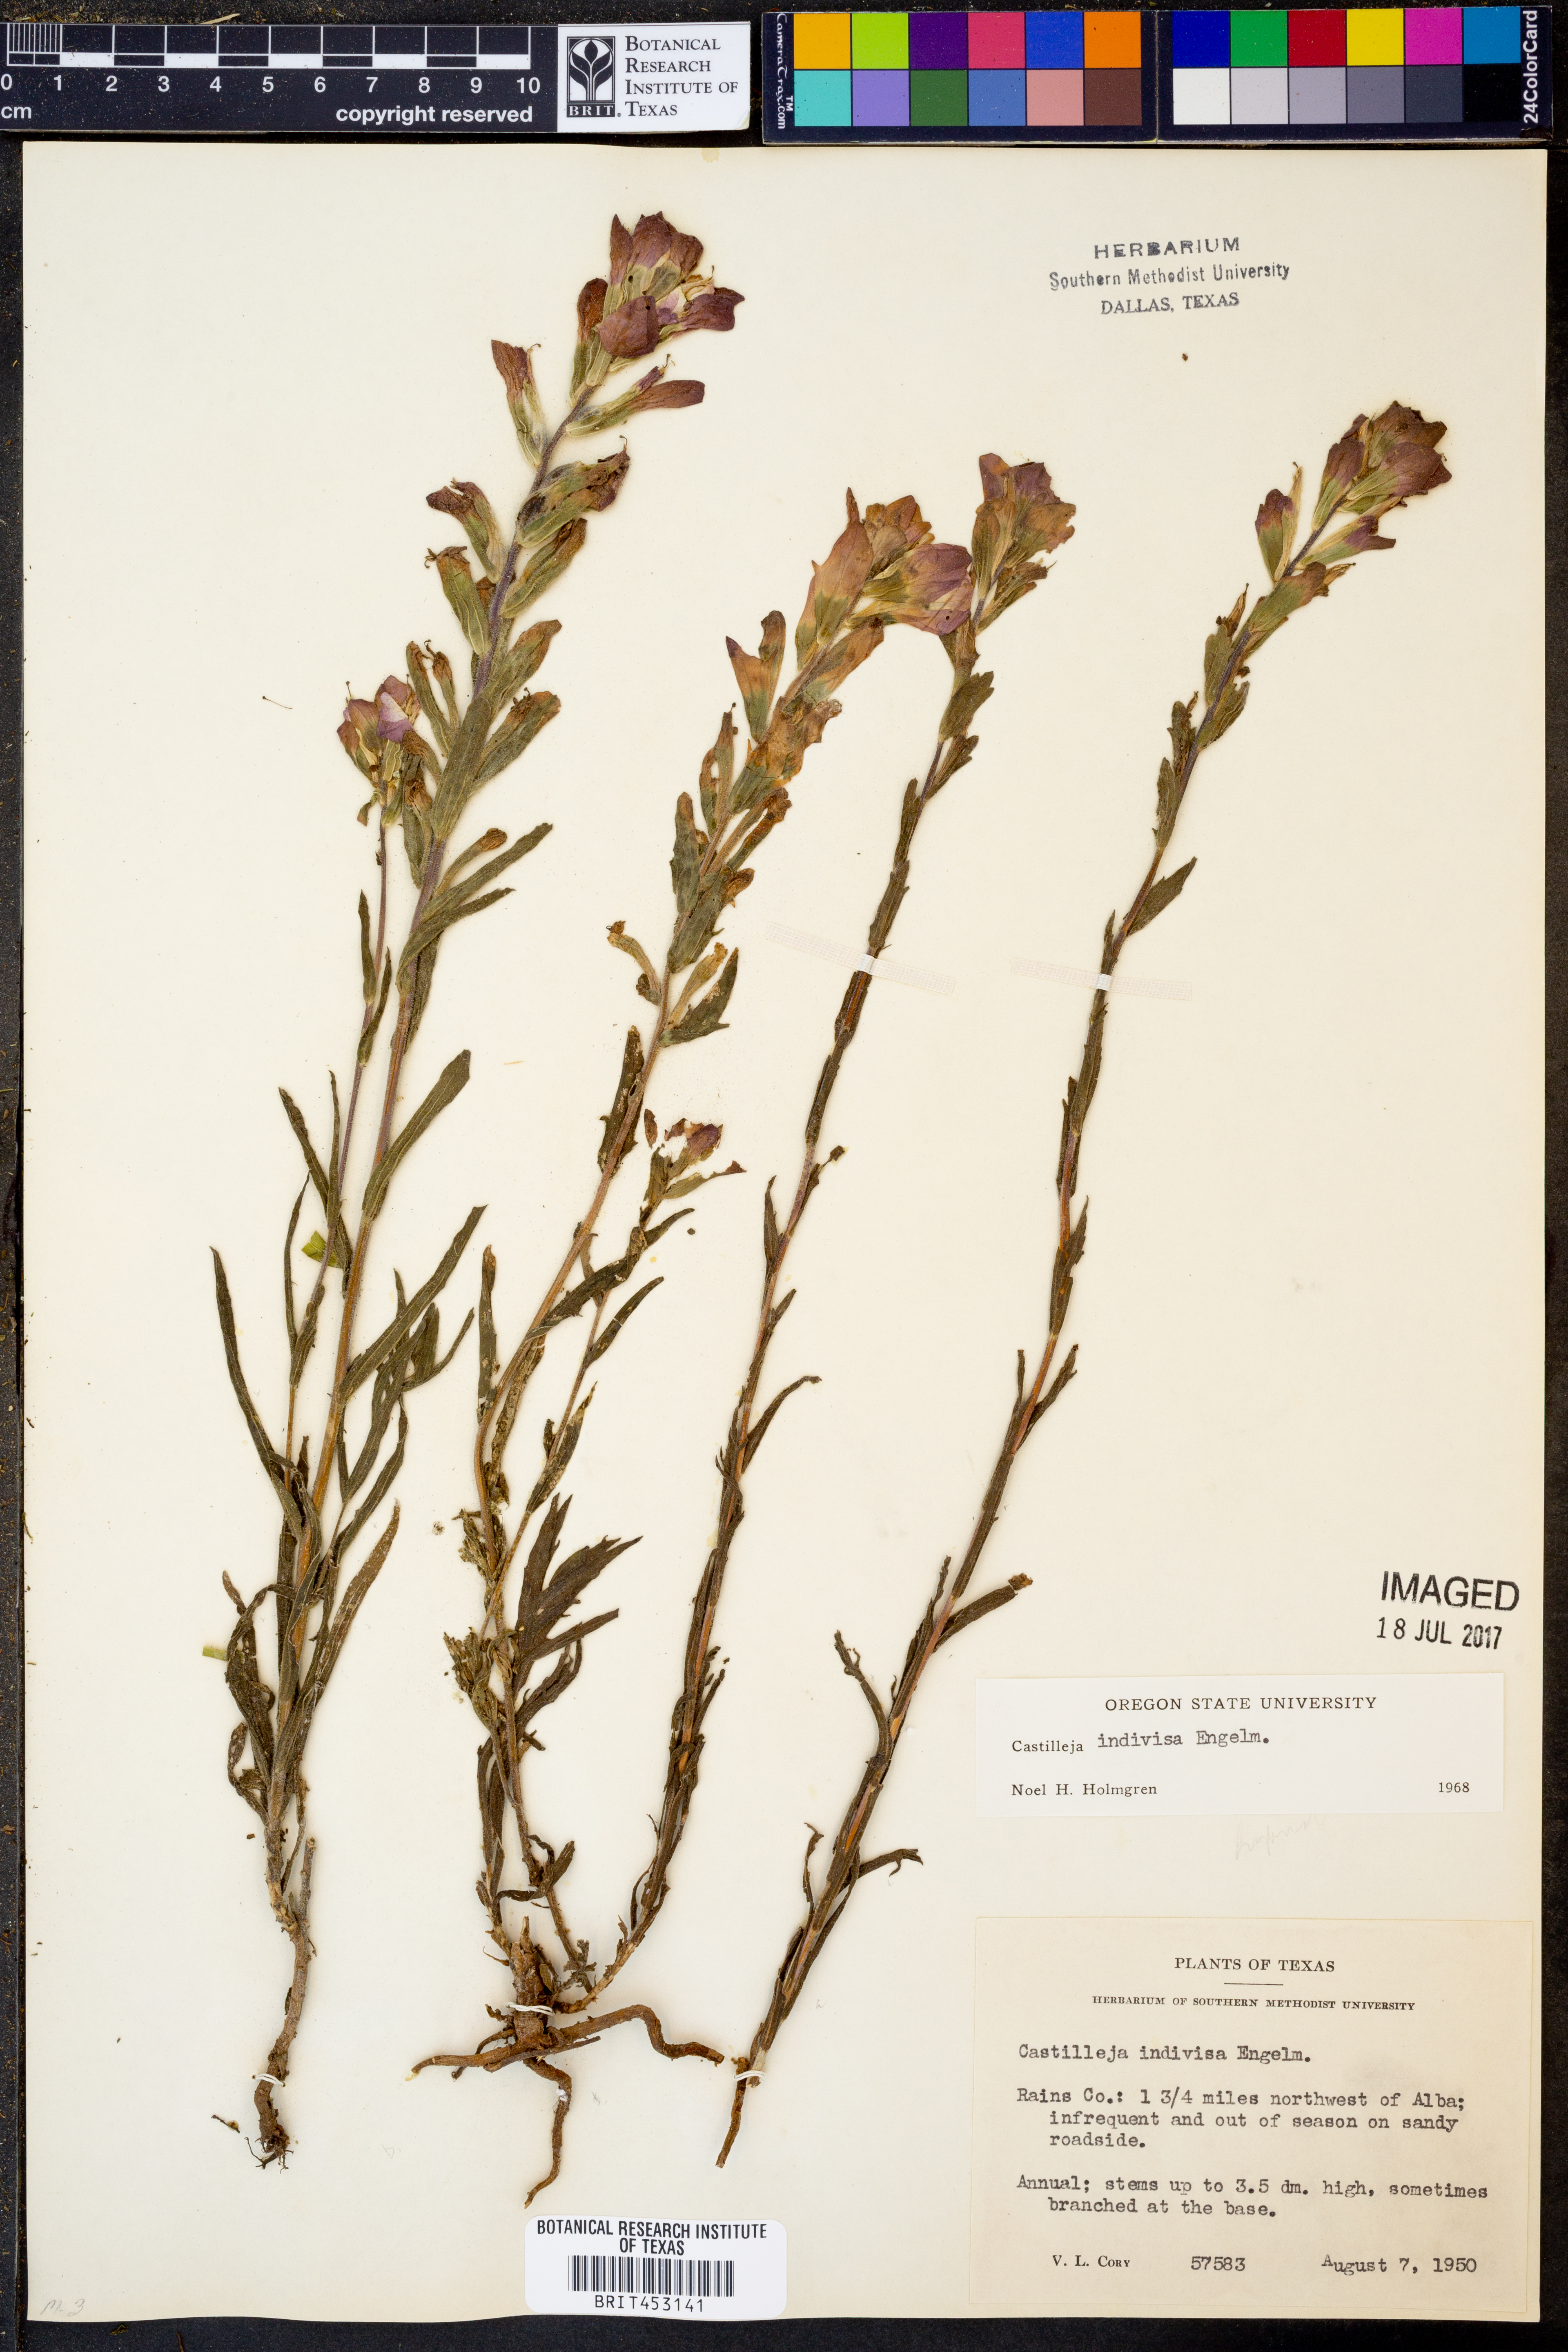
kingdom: Plantae
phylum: Tracheophyta
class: Magnoliopsida
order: Lamiales
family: Orobanchaceae
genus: Castilleja
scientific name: Castilleja indivisa
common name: Texas paintbrush
